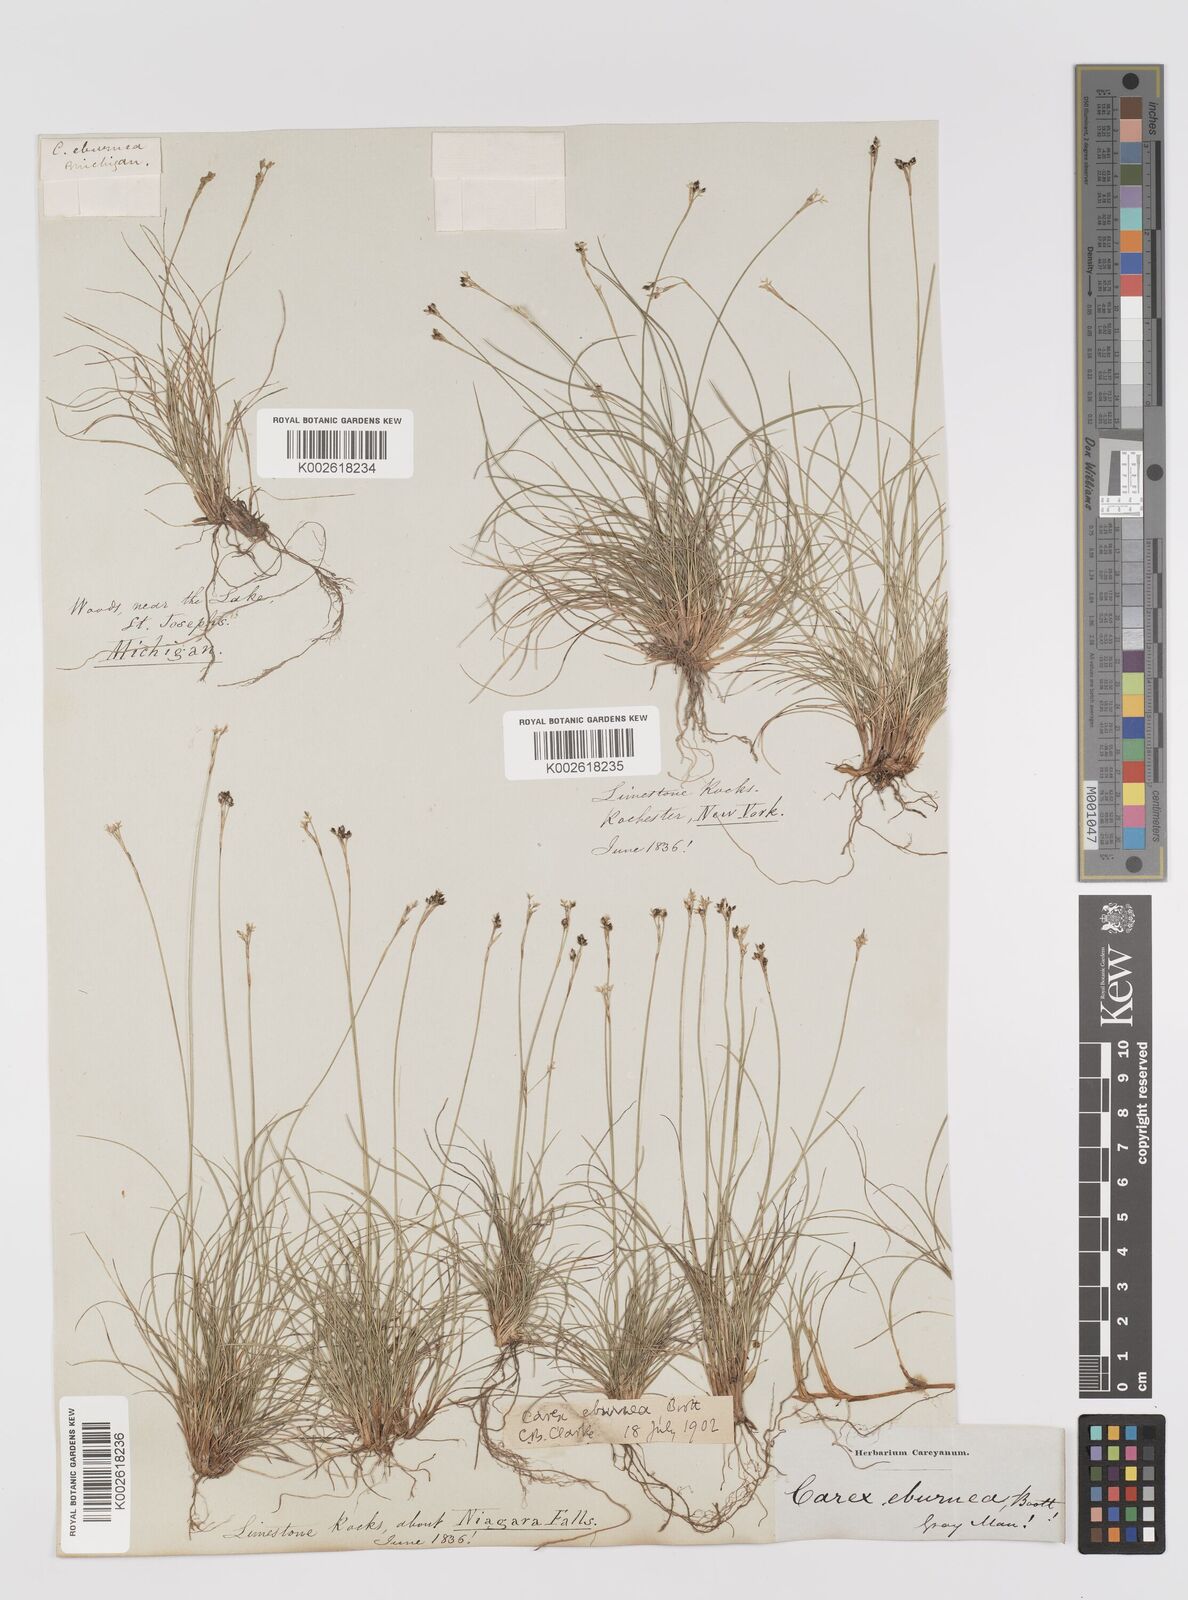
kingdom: Plantae
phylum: Tracheophyta
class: Liliopsida
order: Poales
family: Cyperaceae
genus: Carex
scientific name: Carex eburnea
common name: Bristle-leaved sedge
